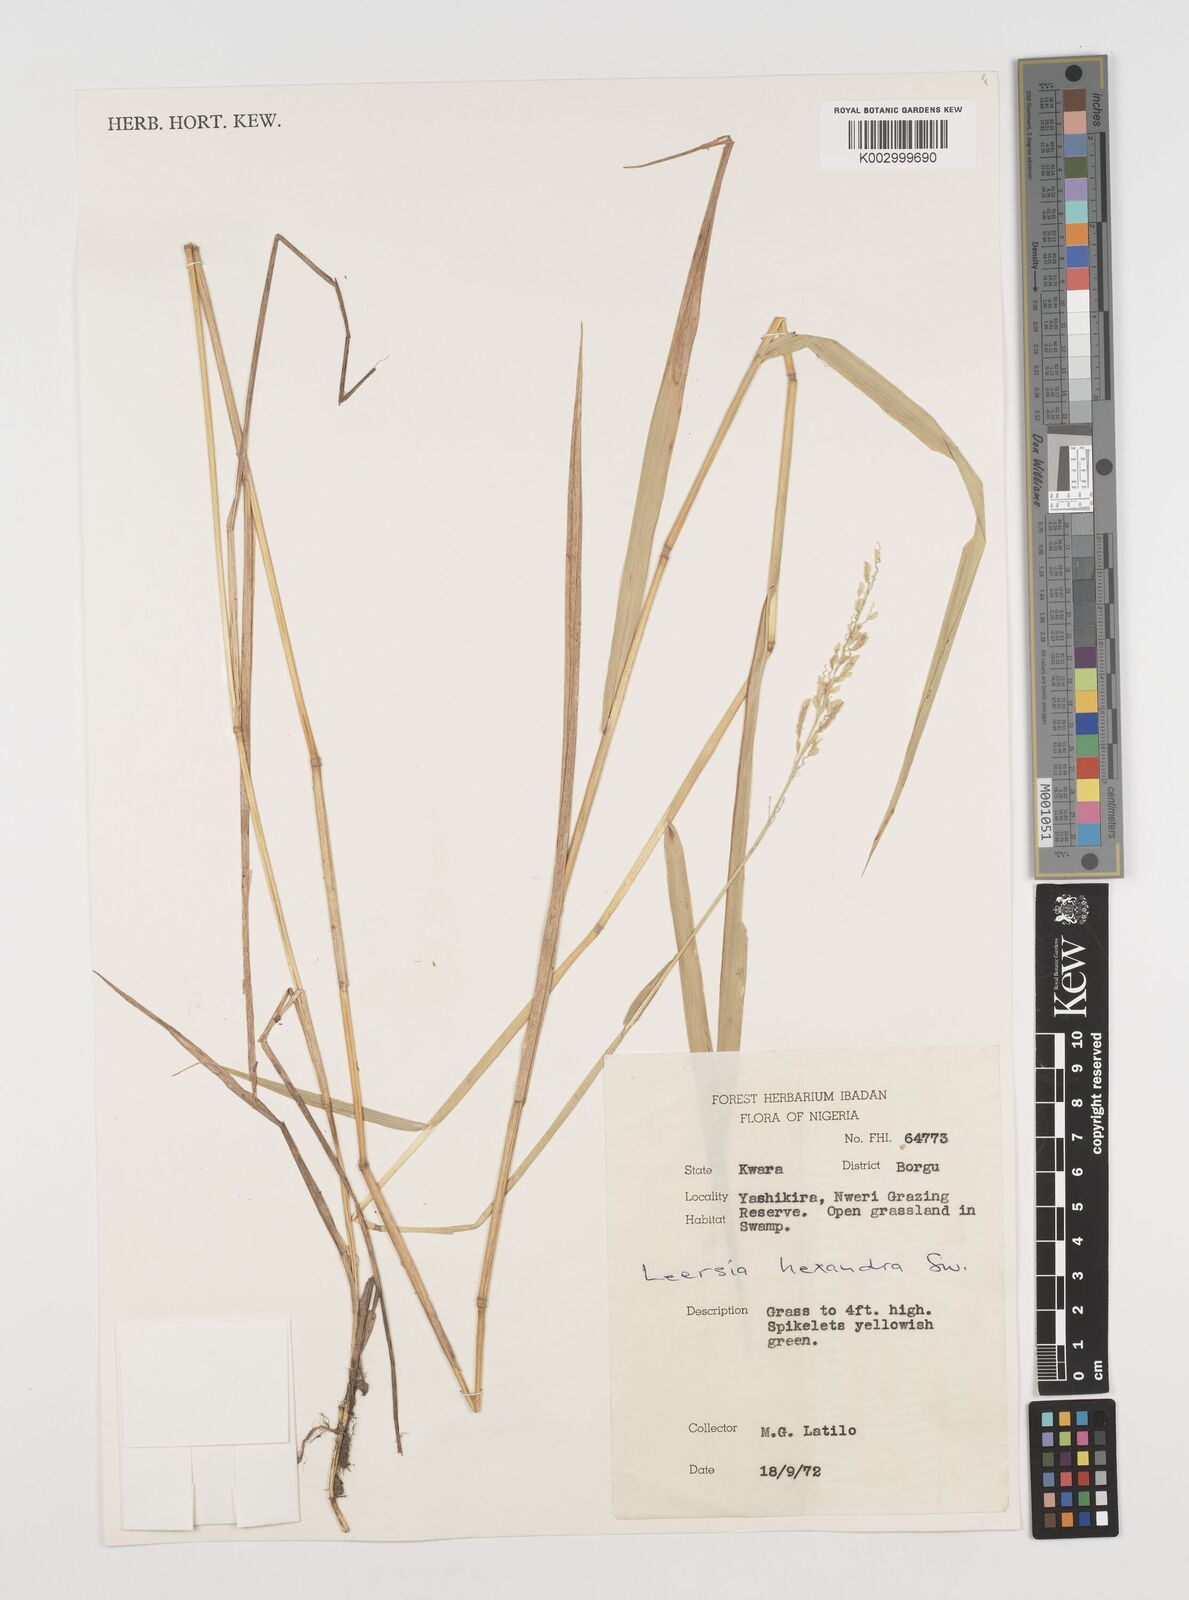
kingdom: Plantae
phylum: Tracheophyta
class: Liliopsida
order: Poales
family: Poaceae
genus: Leersia
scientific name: Leersia hexandra
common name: Southern cut grass
